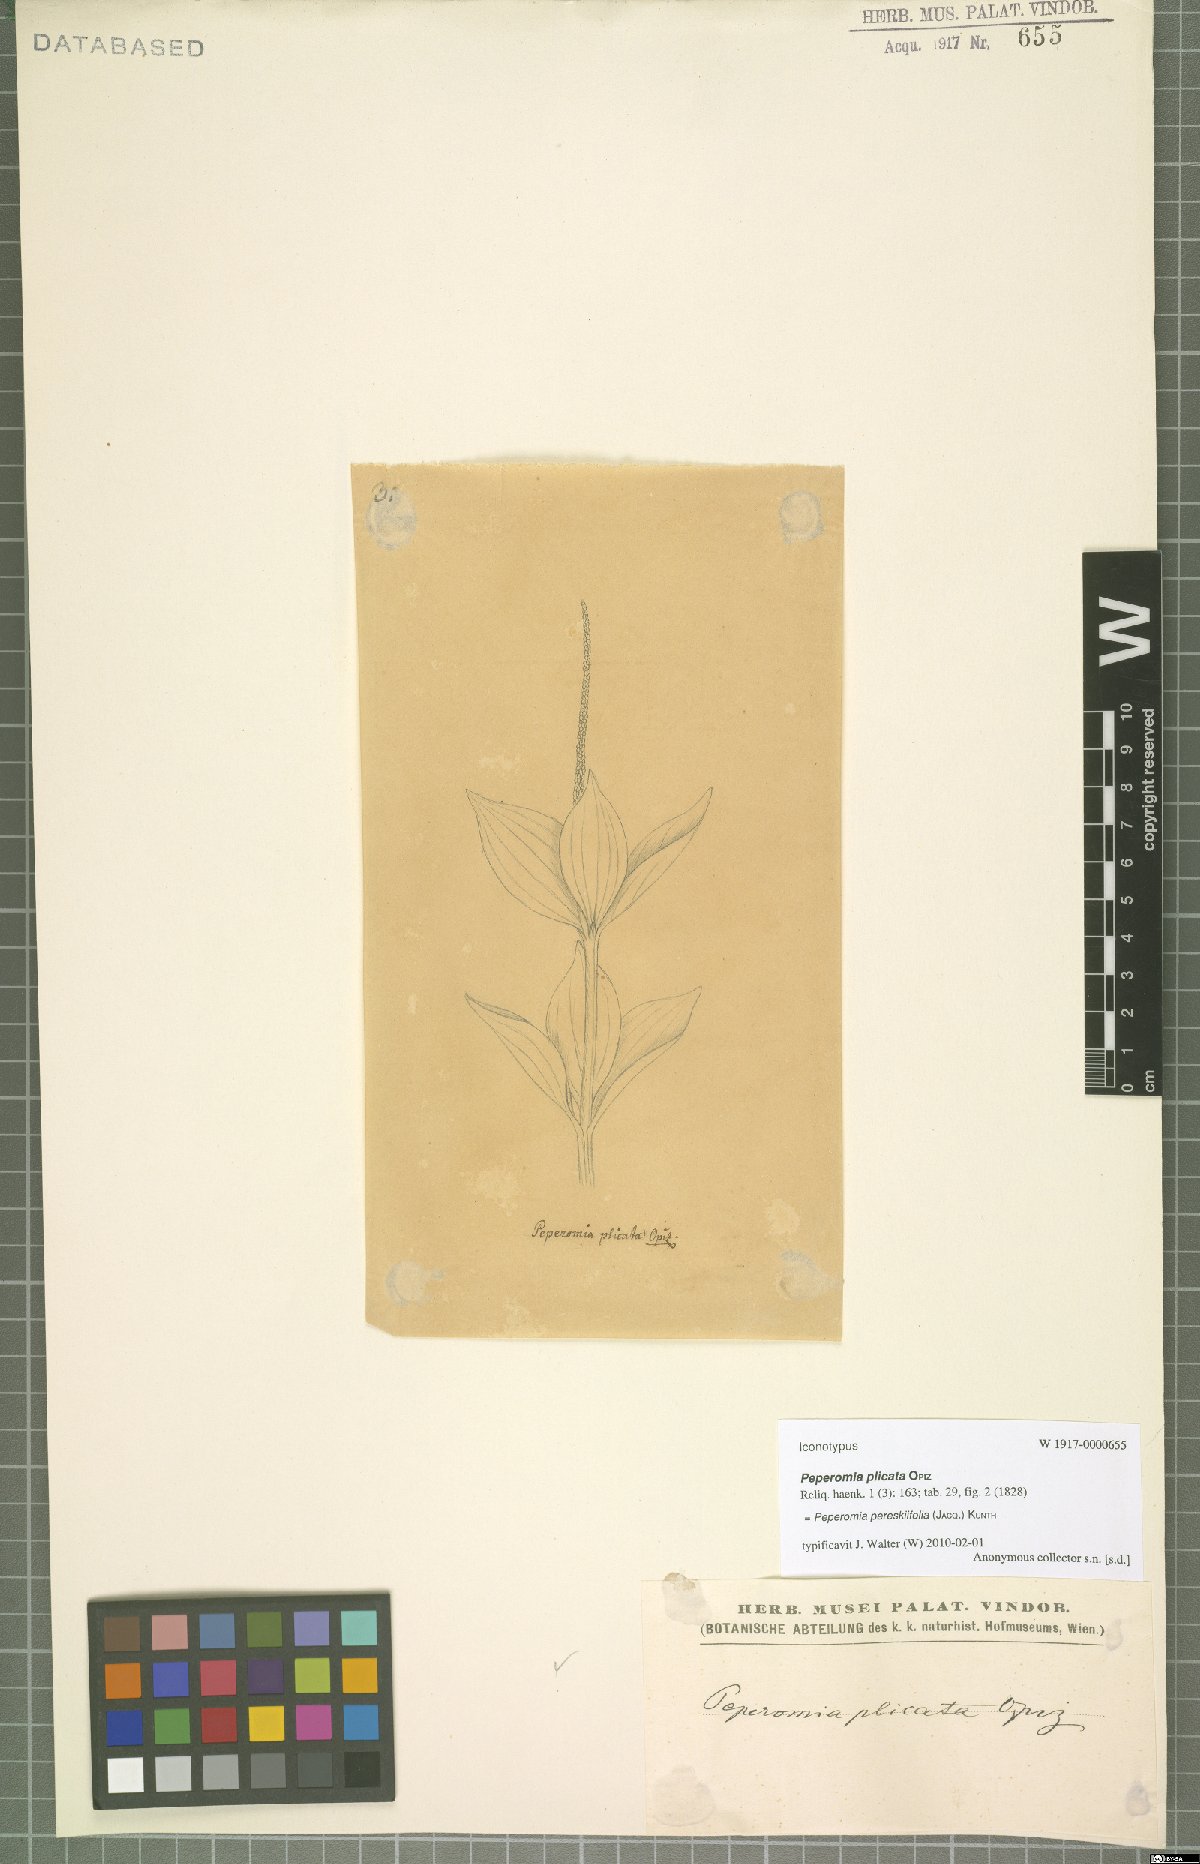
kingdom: Plantae
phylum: Tracheophyta
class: Magnoliopsida
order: Piperales
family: Piperaceae
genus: Peperomia
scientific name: Peperomia pereskiifolia
